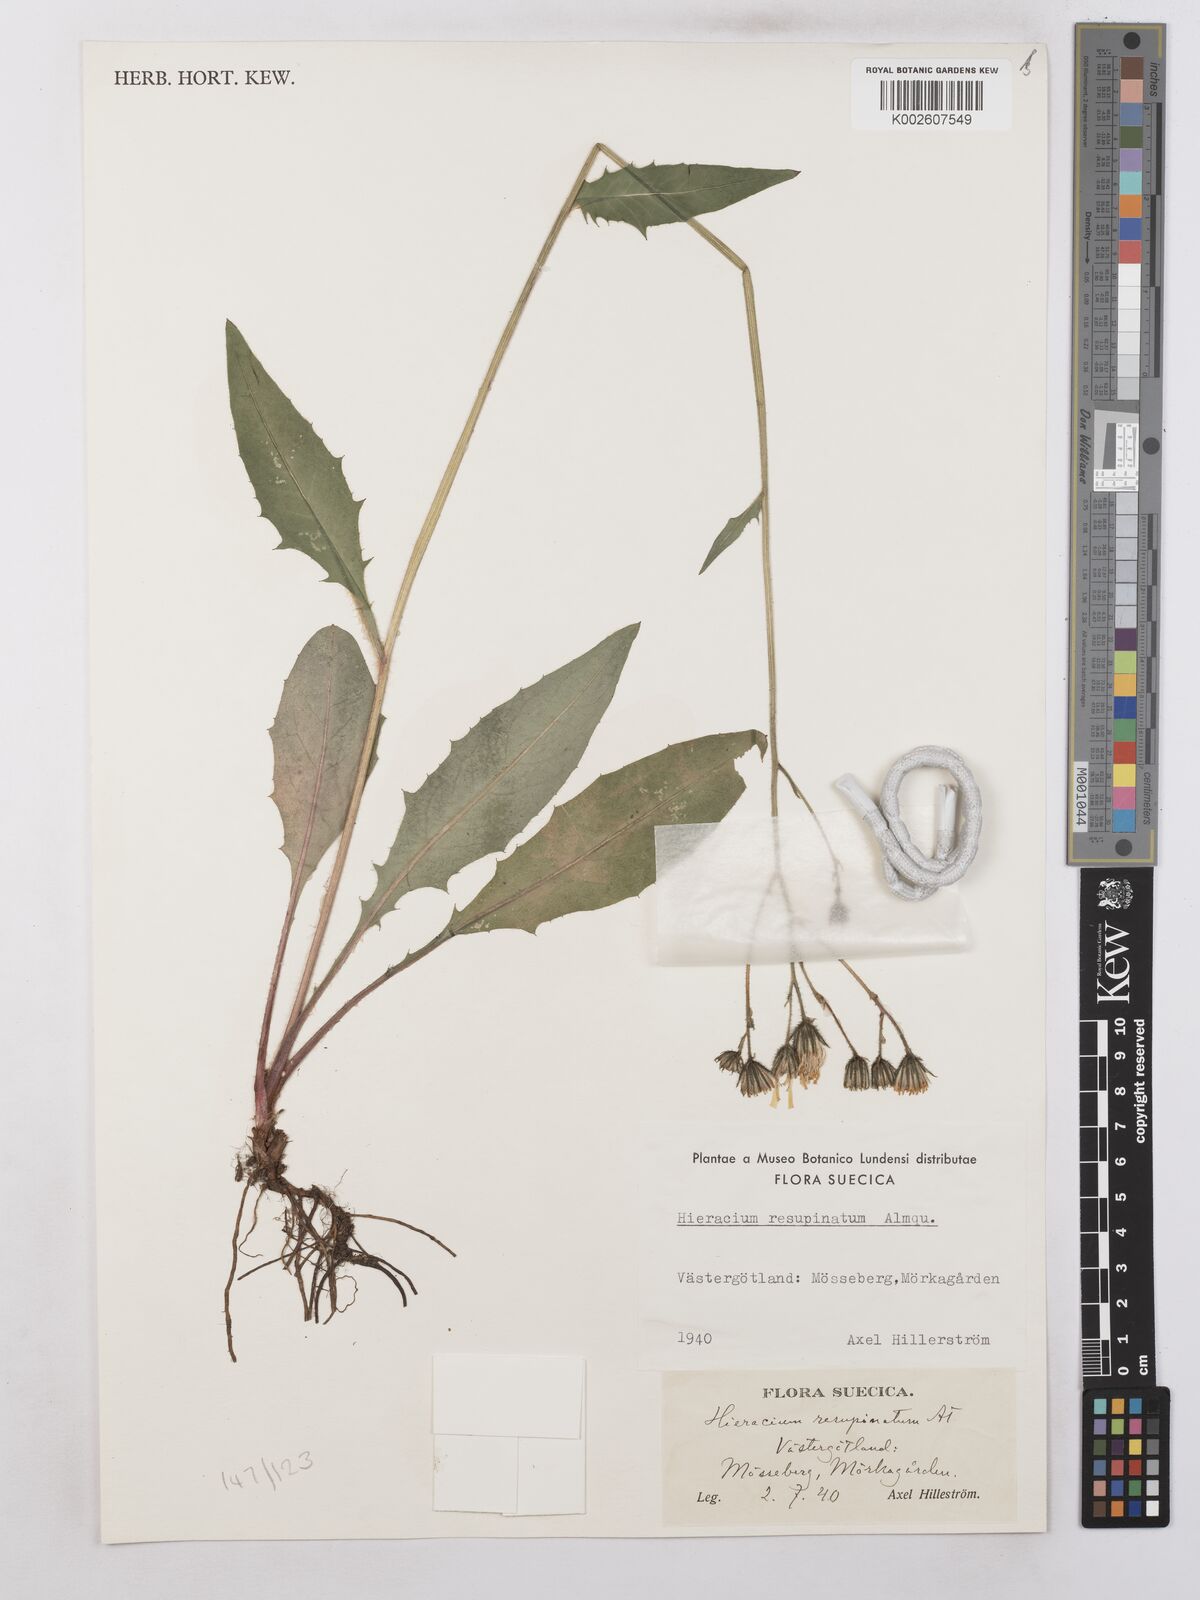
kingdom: Plantae
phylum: Tracheophyta
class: Magnoliopsida
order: Asterales
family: Asteraceae
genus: Hieracium
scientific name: Hieracium caesium
